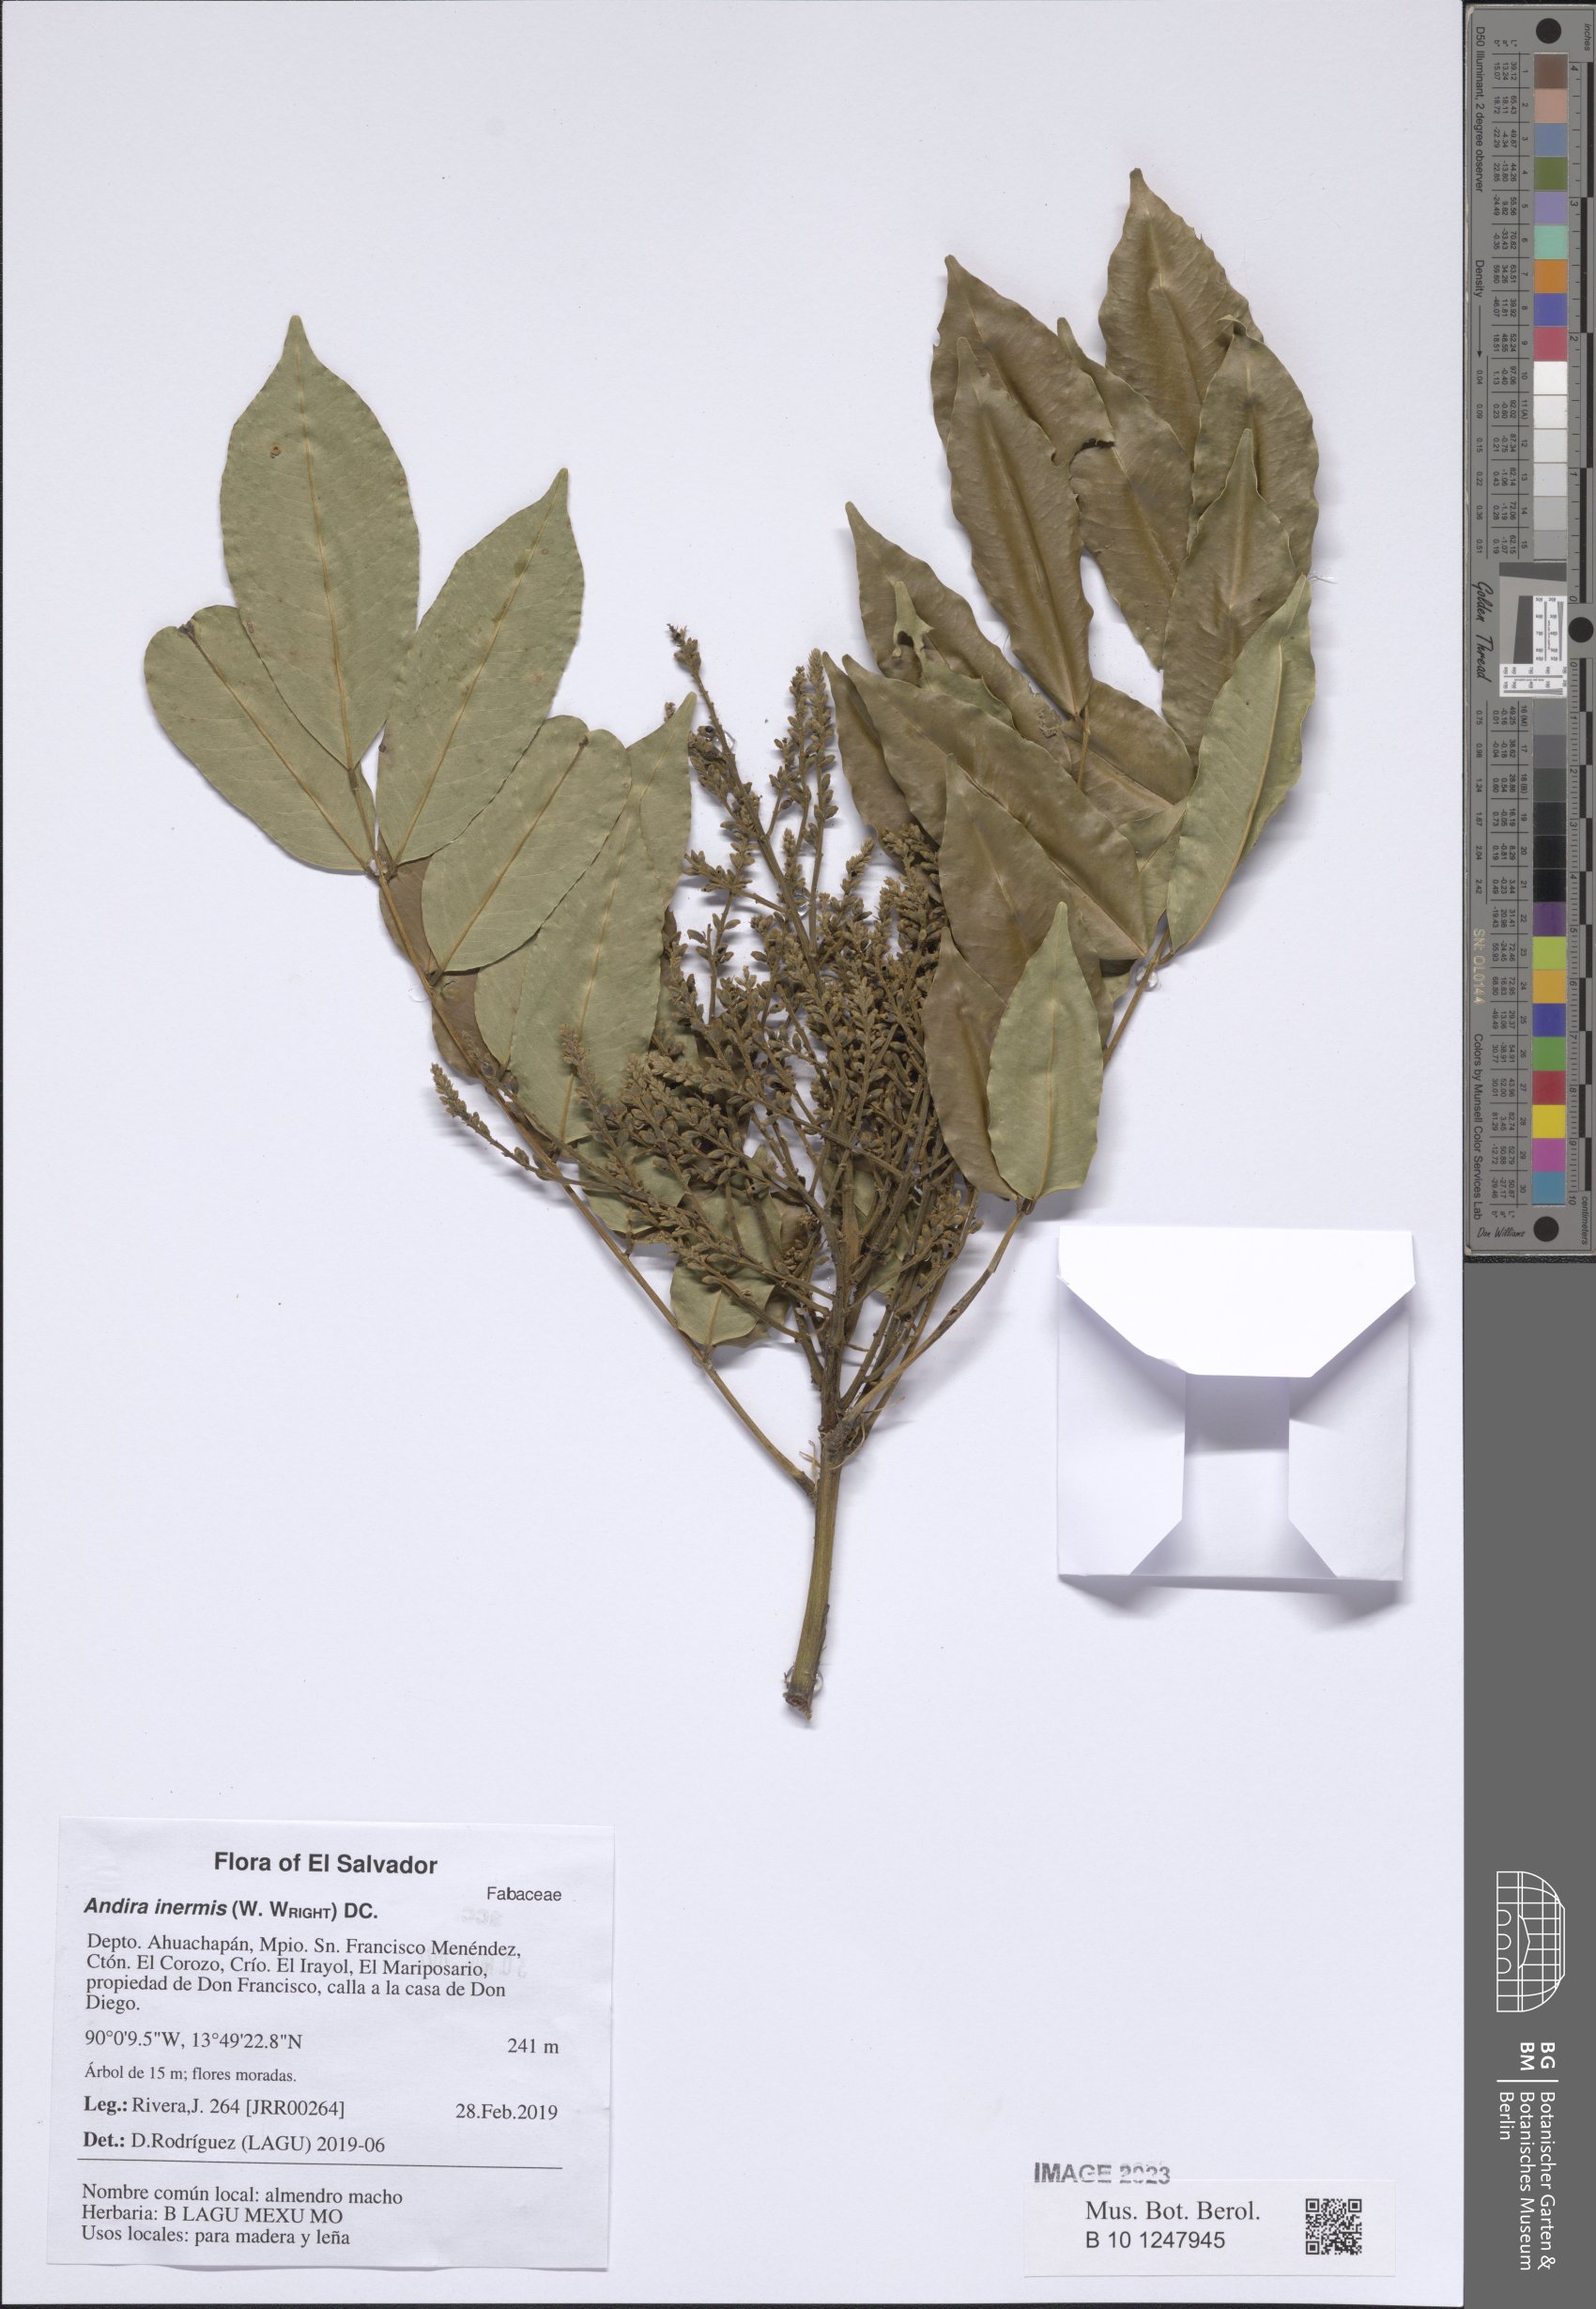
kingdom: Plantae
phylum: Tracheophyta
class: Magnoliopsida
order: Fabales
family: Fabaceae
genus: Andira
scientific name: Andira inermis
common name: Angelin
